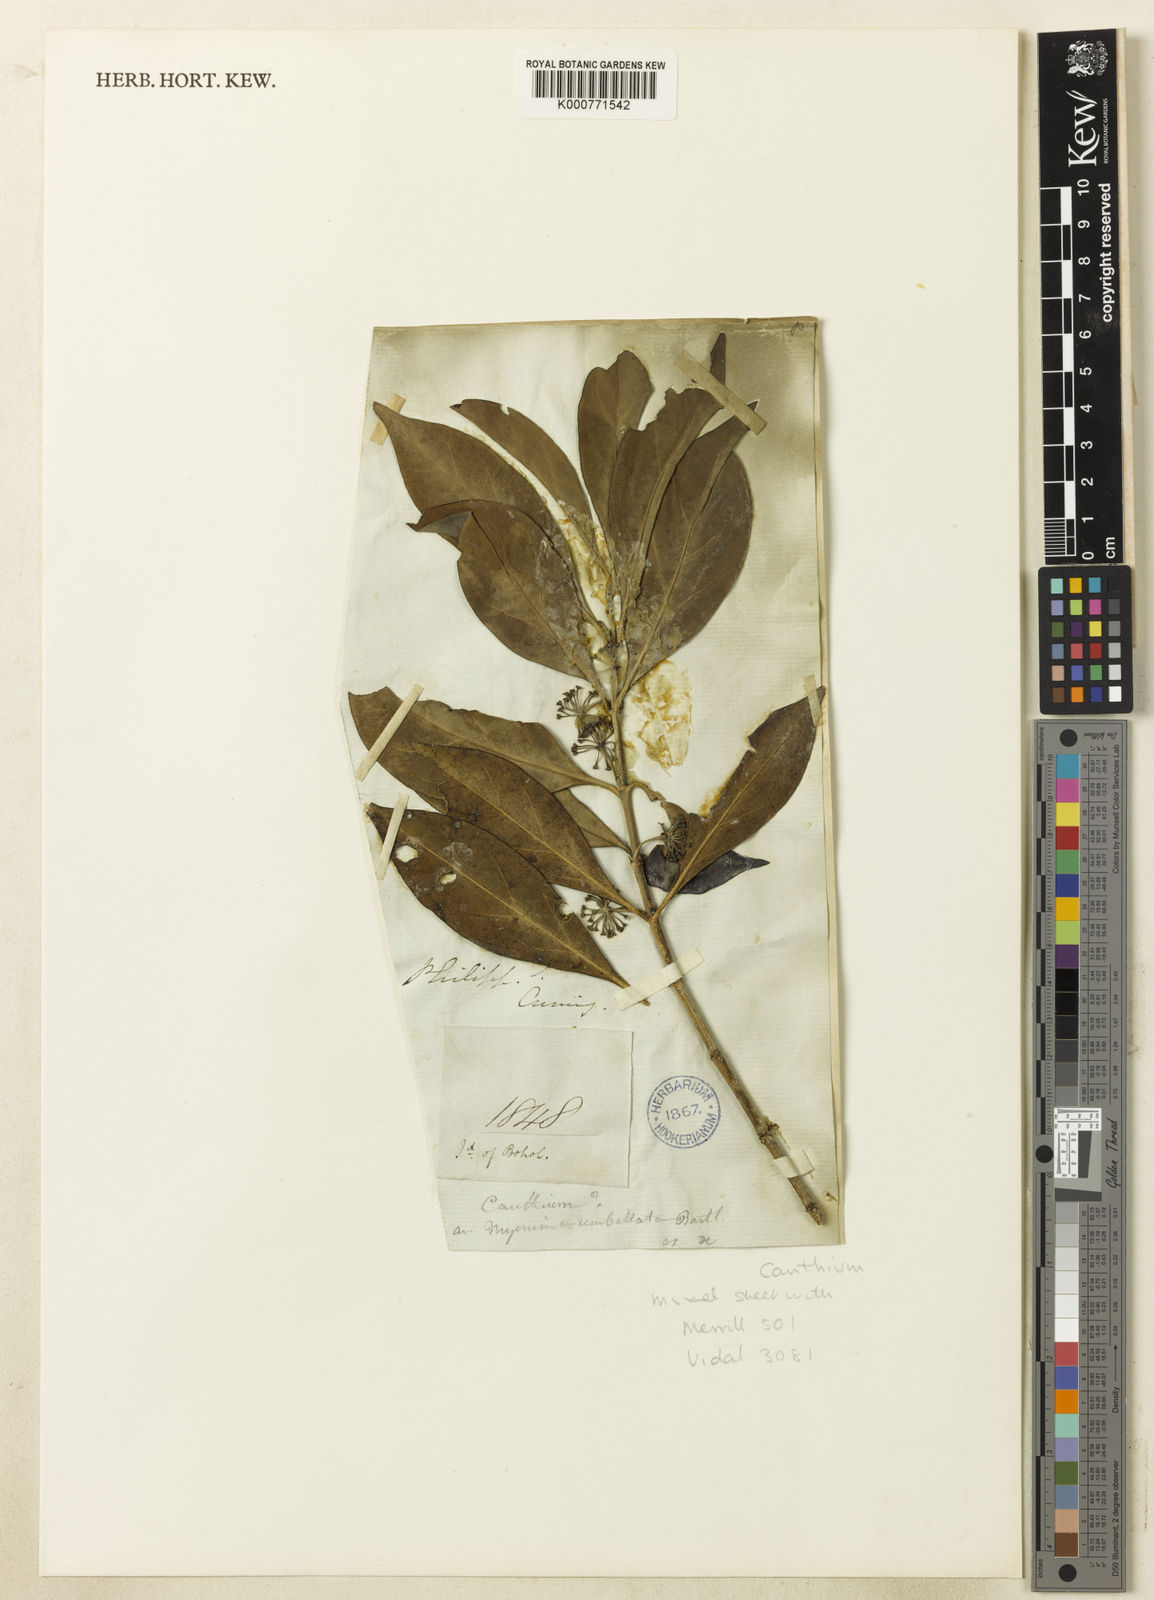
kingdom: Plantae
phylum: Tracheophyta
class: Magnoliopsida
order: Gentianales
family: Rubiaceae
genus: Pyrostria
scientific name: Pyrostria
